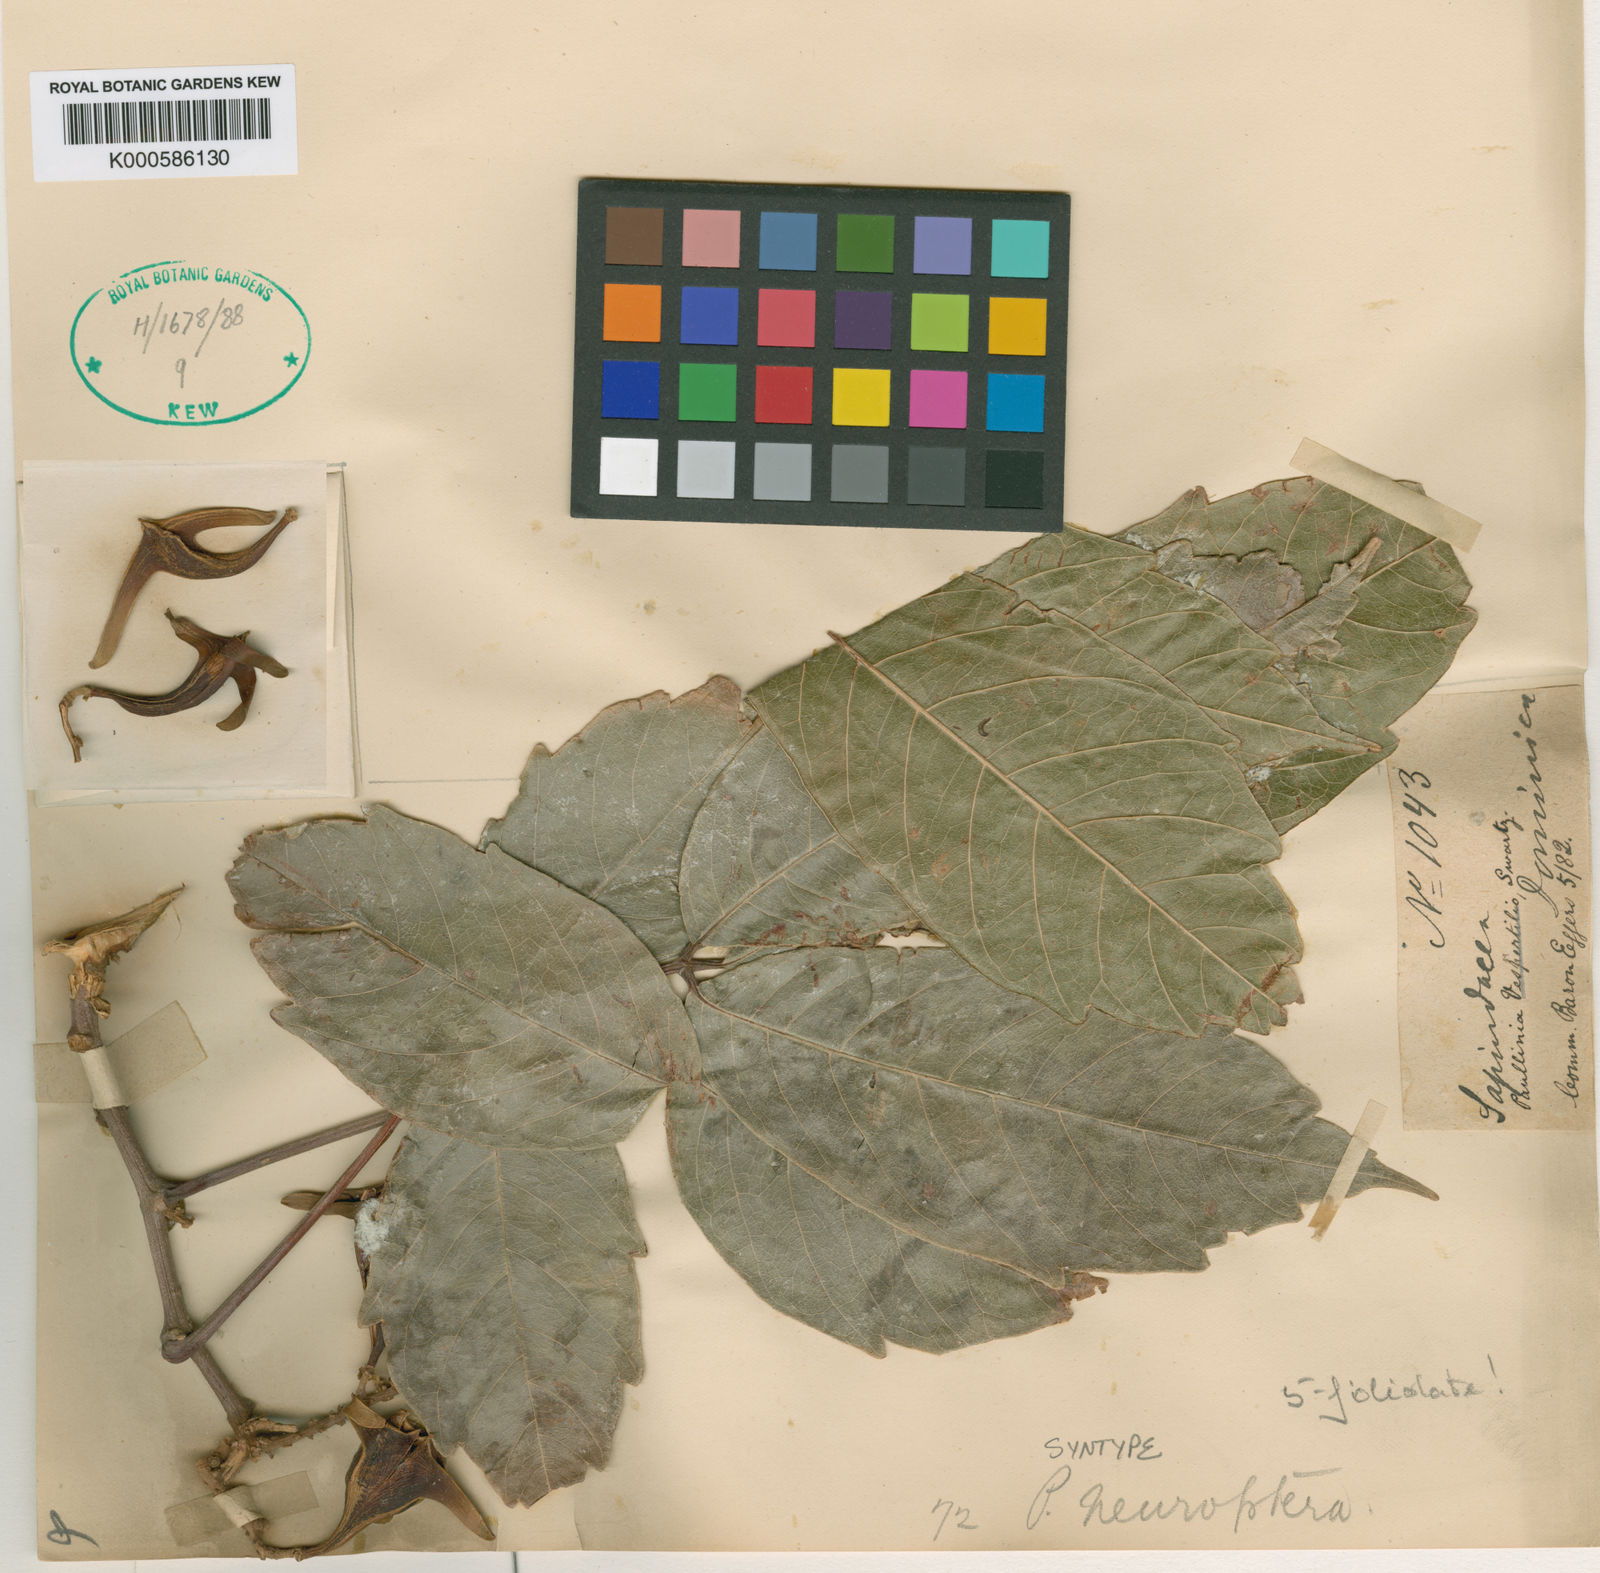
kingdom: Plantae
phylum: Tracheophyta
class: Magnoliopsida
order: Sapindales
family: Sapindaceae
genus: Paullinia
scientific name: Paullinia vespertilio
